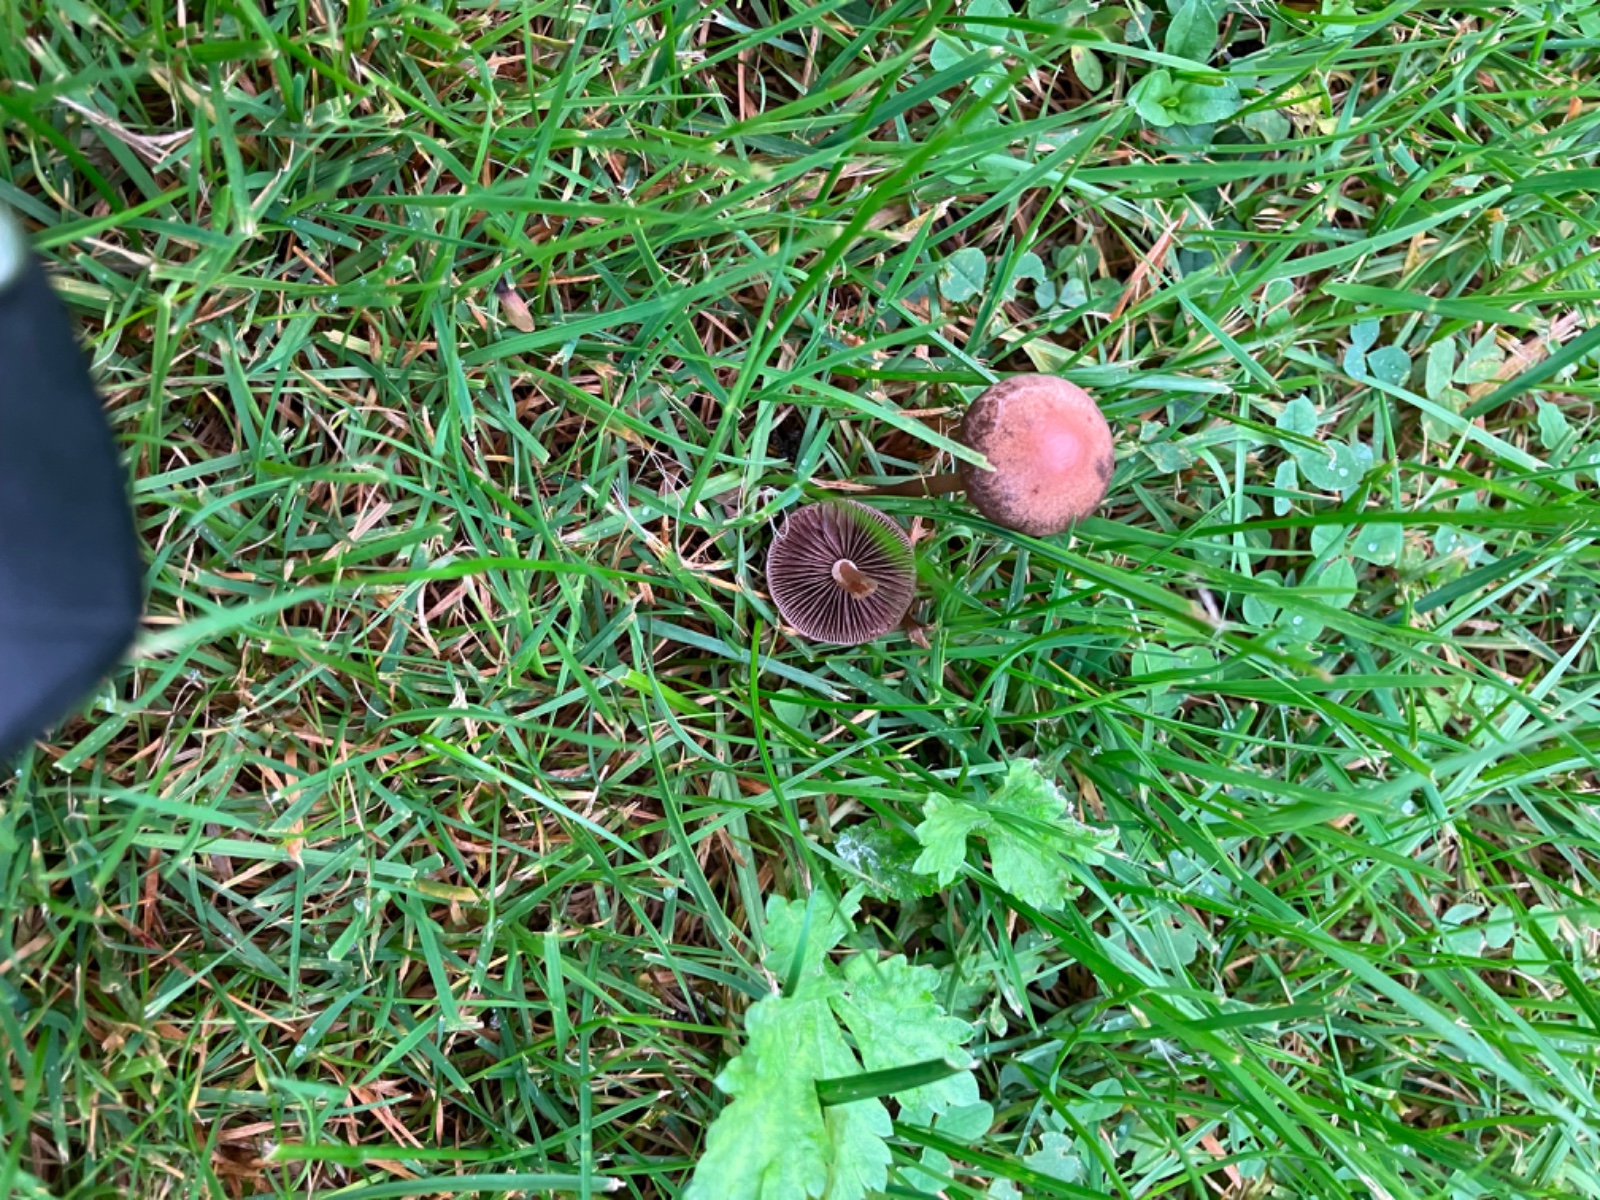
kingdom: Fungi
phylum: Basidiomycota
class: Agaricomycetes
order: Agaricales
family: Bolbitiaceae
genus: Panaeolina
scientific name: Panaeolina foenisecii
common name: høslætsvamp
